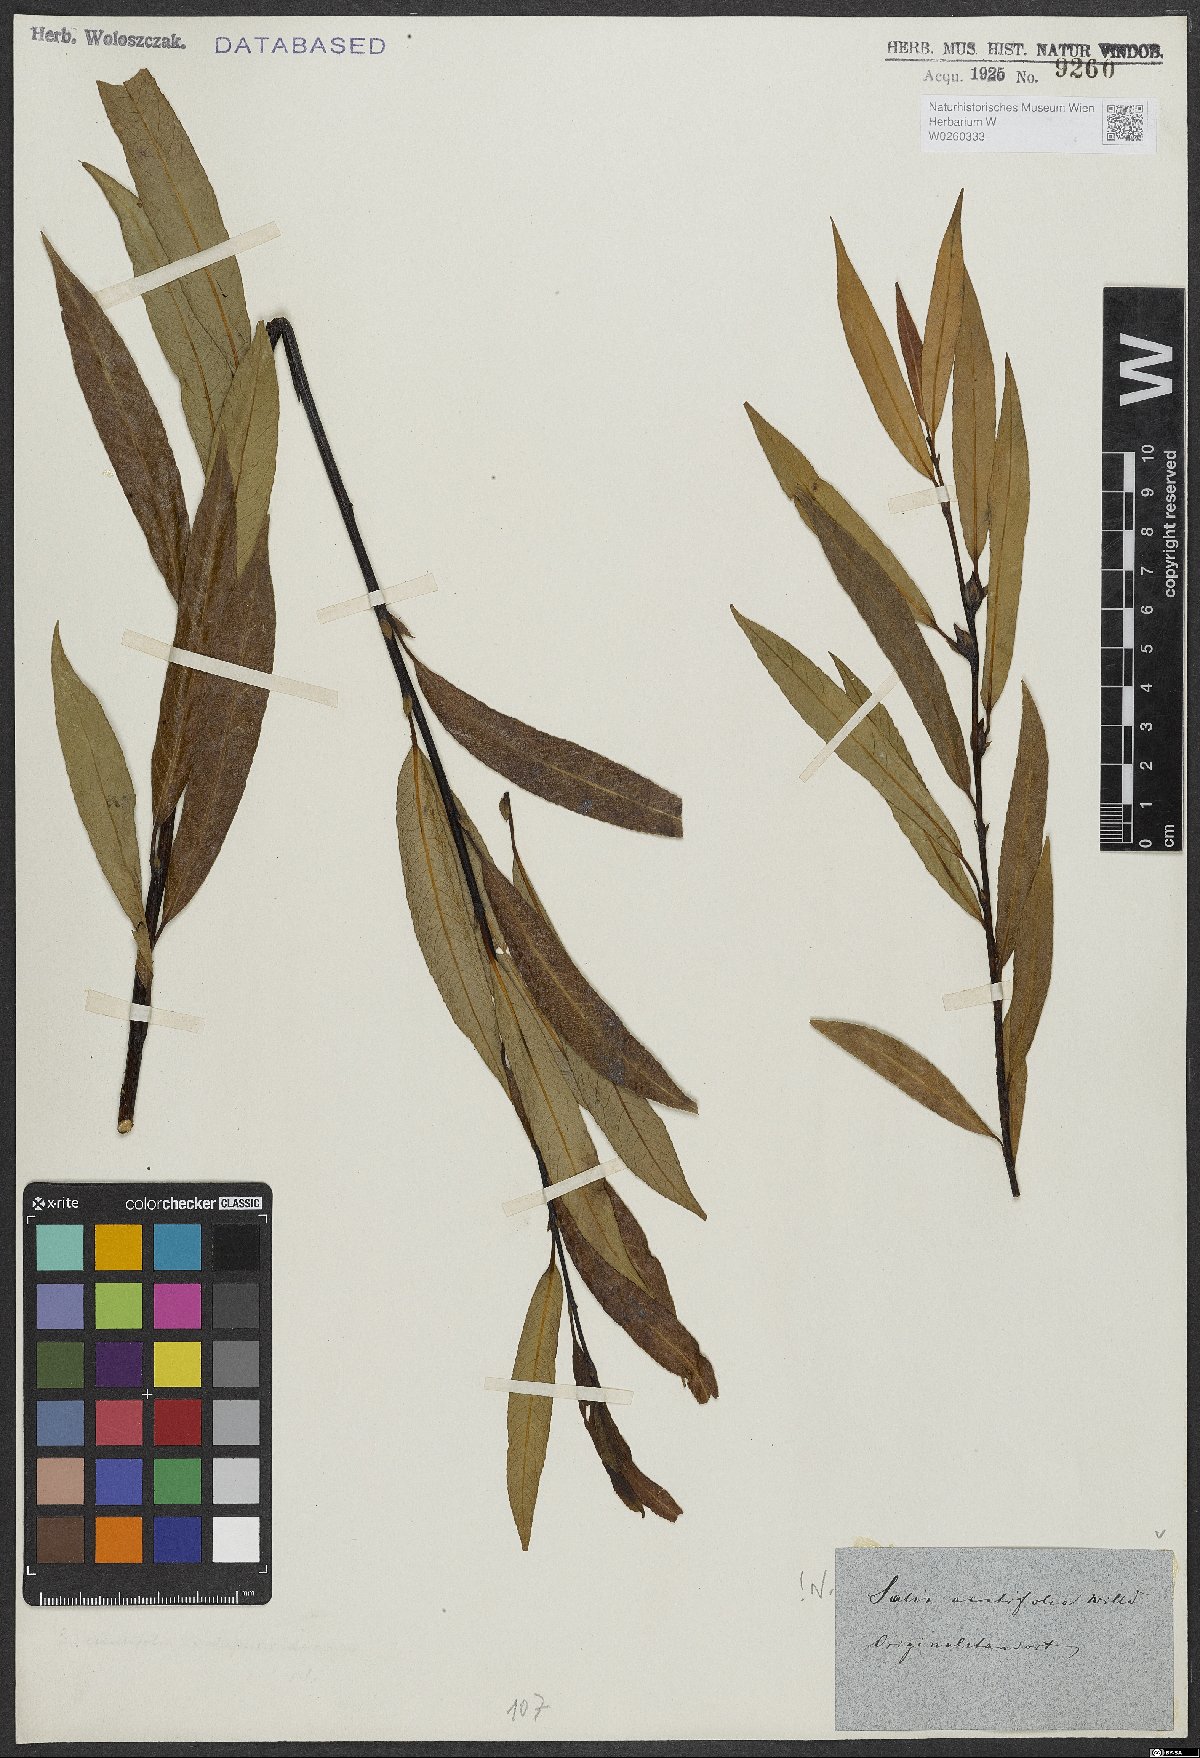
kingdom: Plantae
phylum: Tracheophyta
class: Magnoliopsida
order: Malpighiales
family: Salicaceae
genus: Salix
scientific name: Salix acutifolia
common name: Siberian violet-willow
